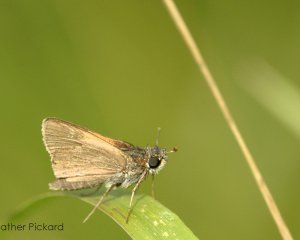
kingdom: Animalia
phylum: Arthropoda
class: Insecta
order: Lepidoptera
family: Hesperiidae
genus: Polites
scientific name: Polites themistocles
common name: Tawny-edged Skipper
